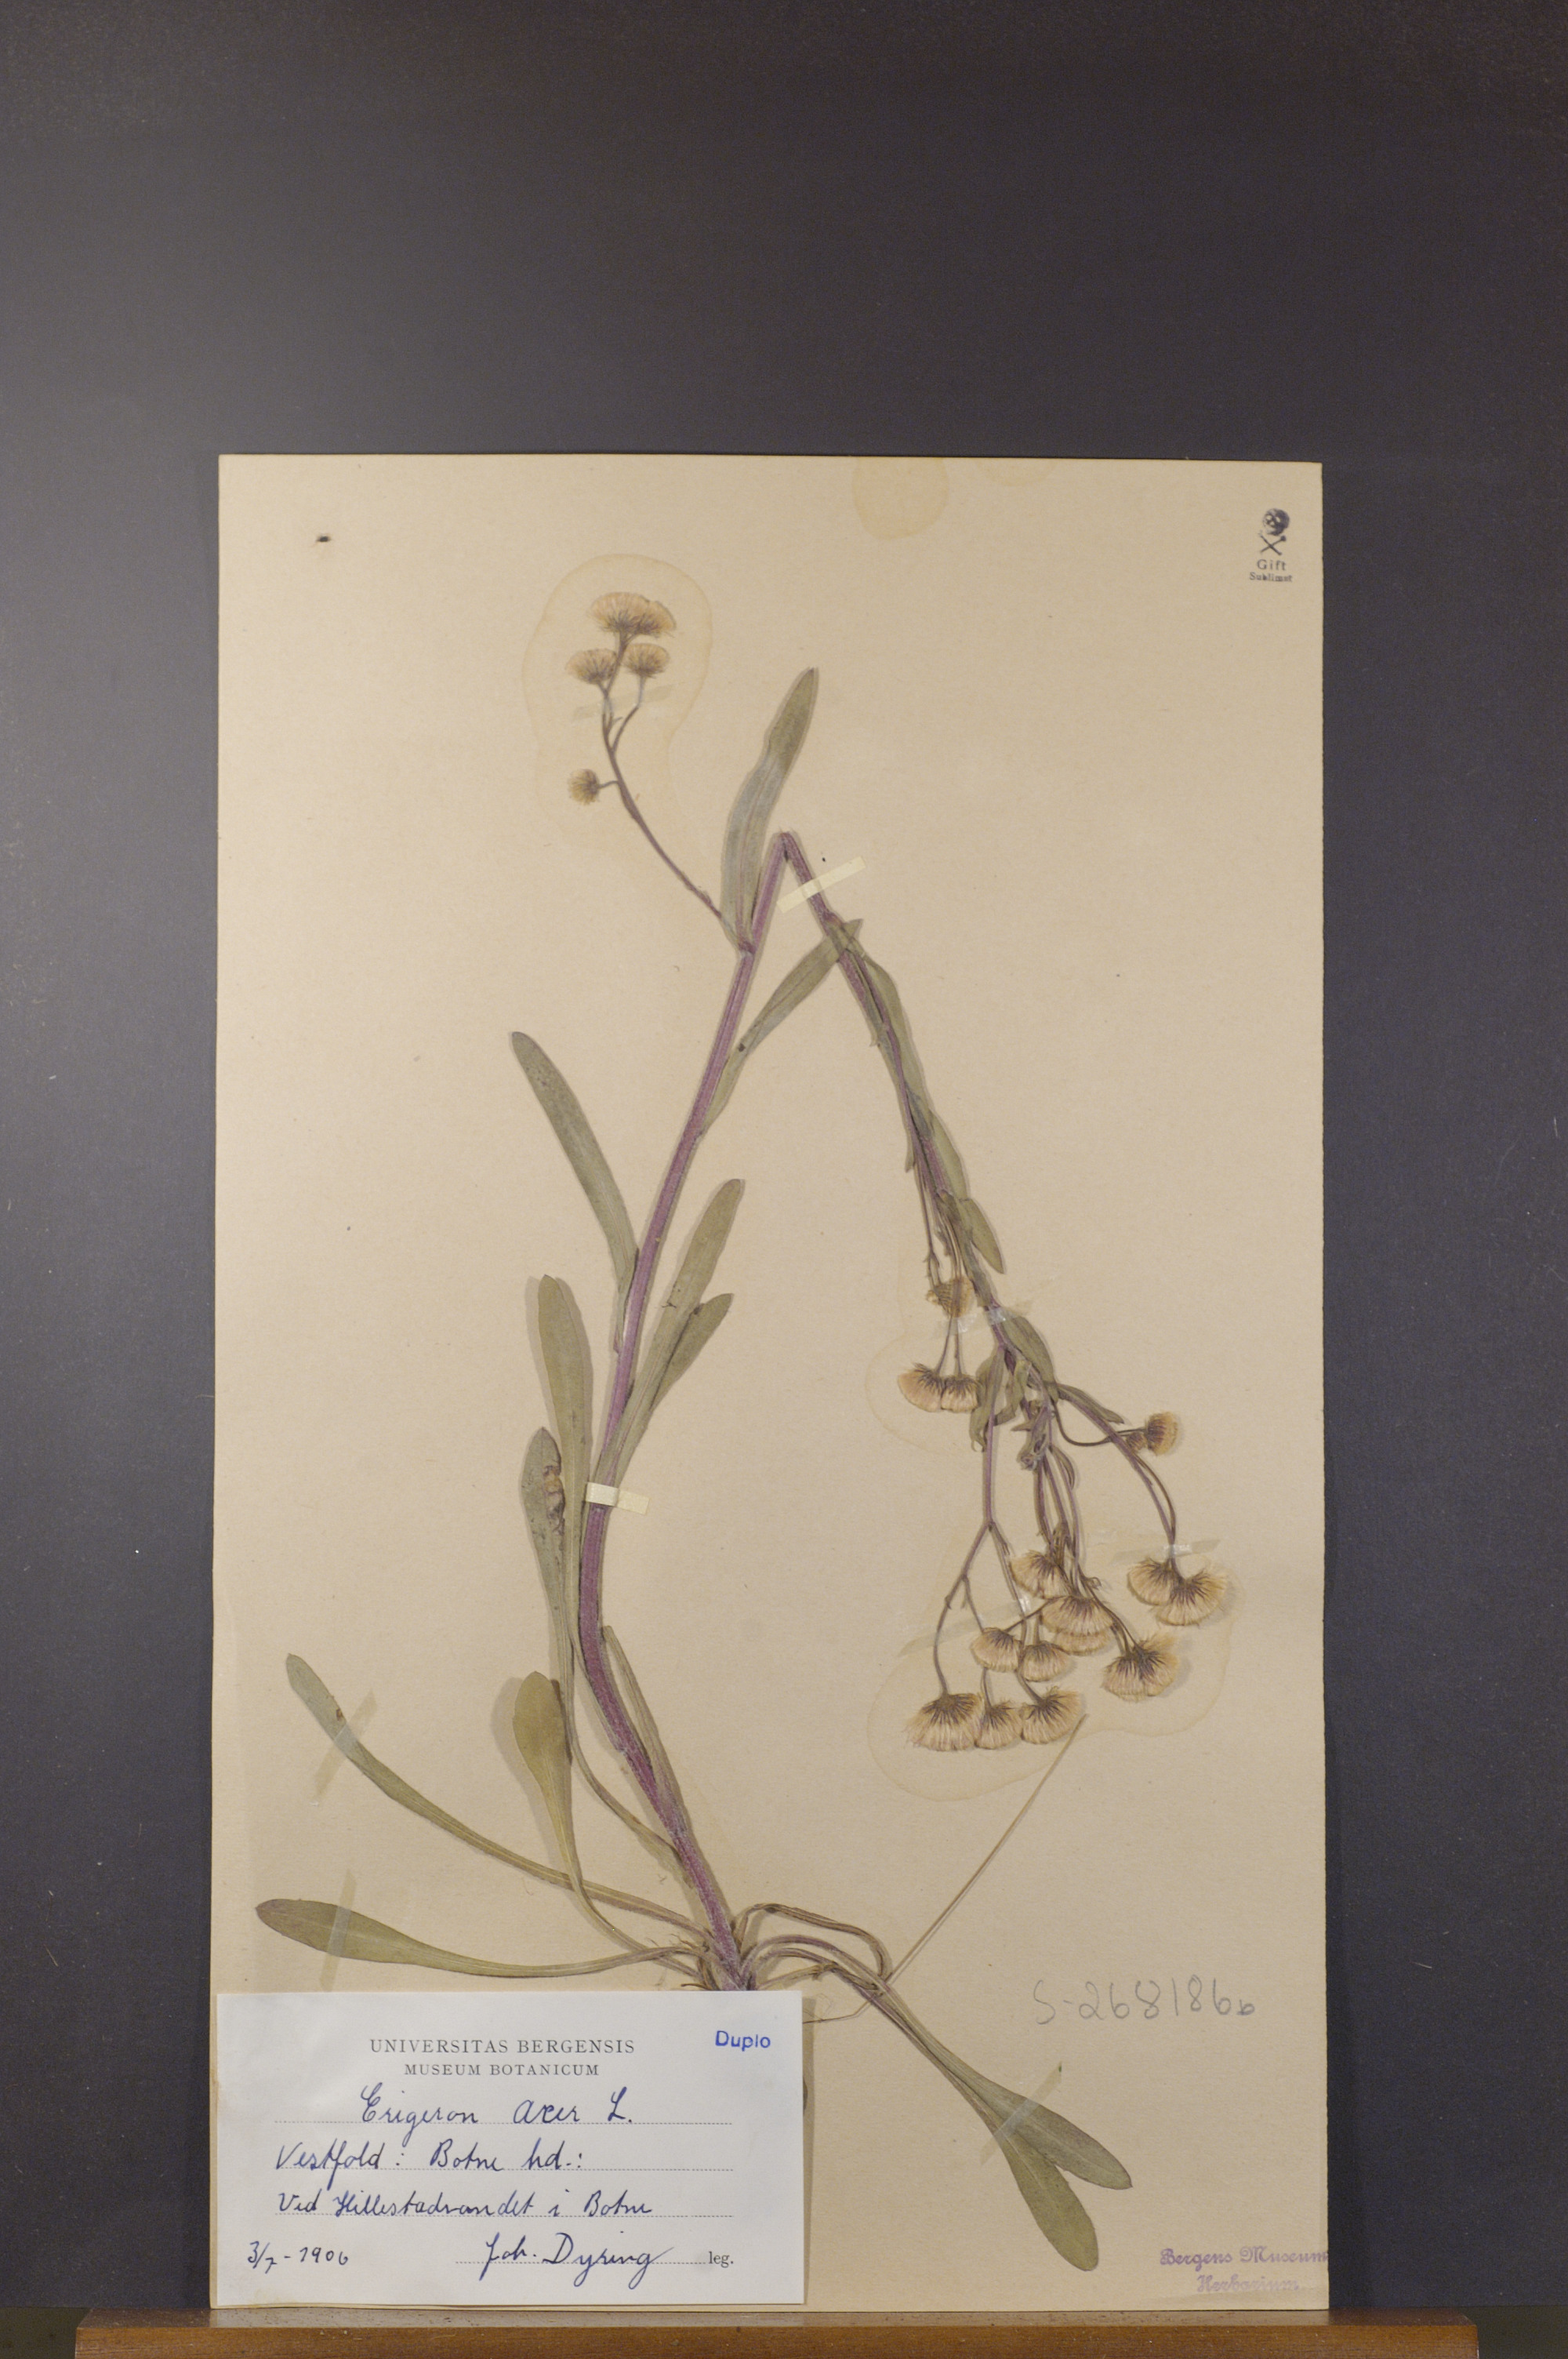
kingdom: Plantae
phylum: Tracheophyta
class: Magnoliopsida
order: Asterales
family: Asteraceae
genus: Erigeron
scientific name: Erigeron acris
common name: Blue fleabane
